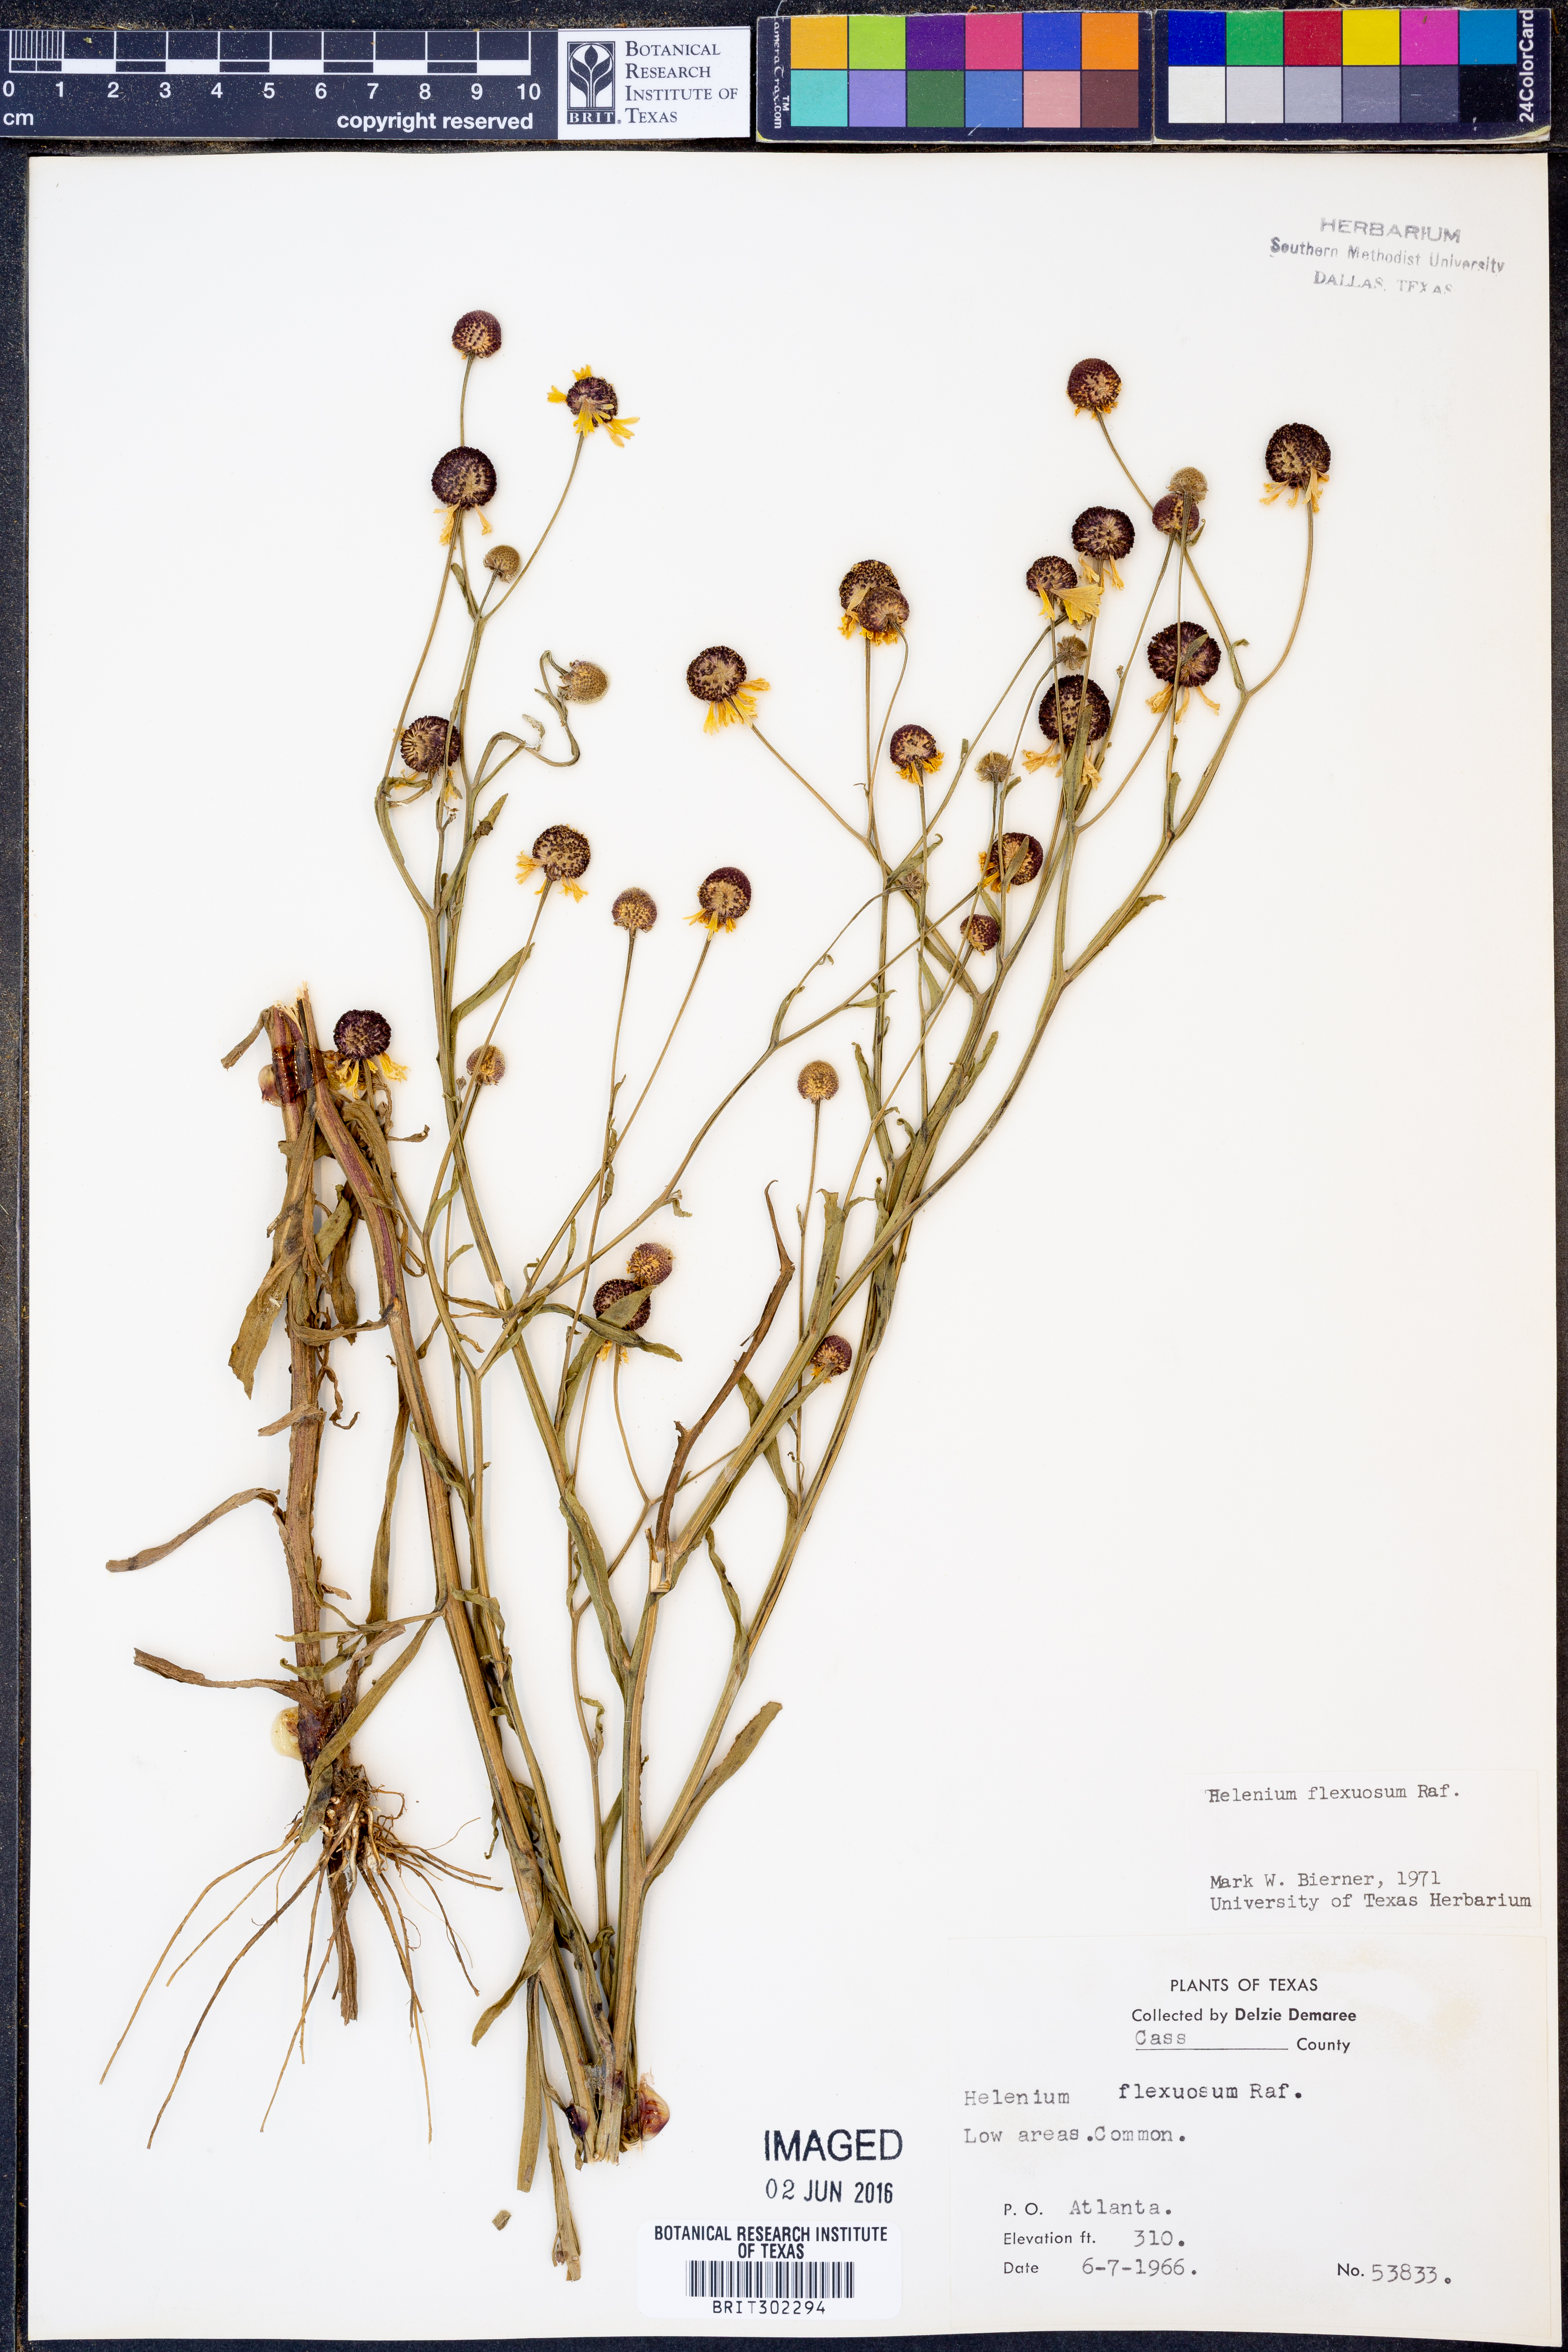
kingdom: Plantae
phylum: Tracheophyta
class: Magnoliopsida
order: Asterales
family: Asteraceae
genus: Helenium
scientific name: Helenium flexuosum
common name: Naked-flowered sneezeweed
